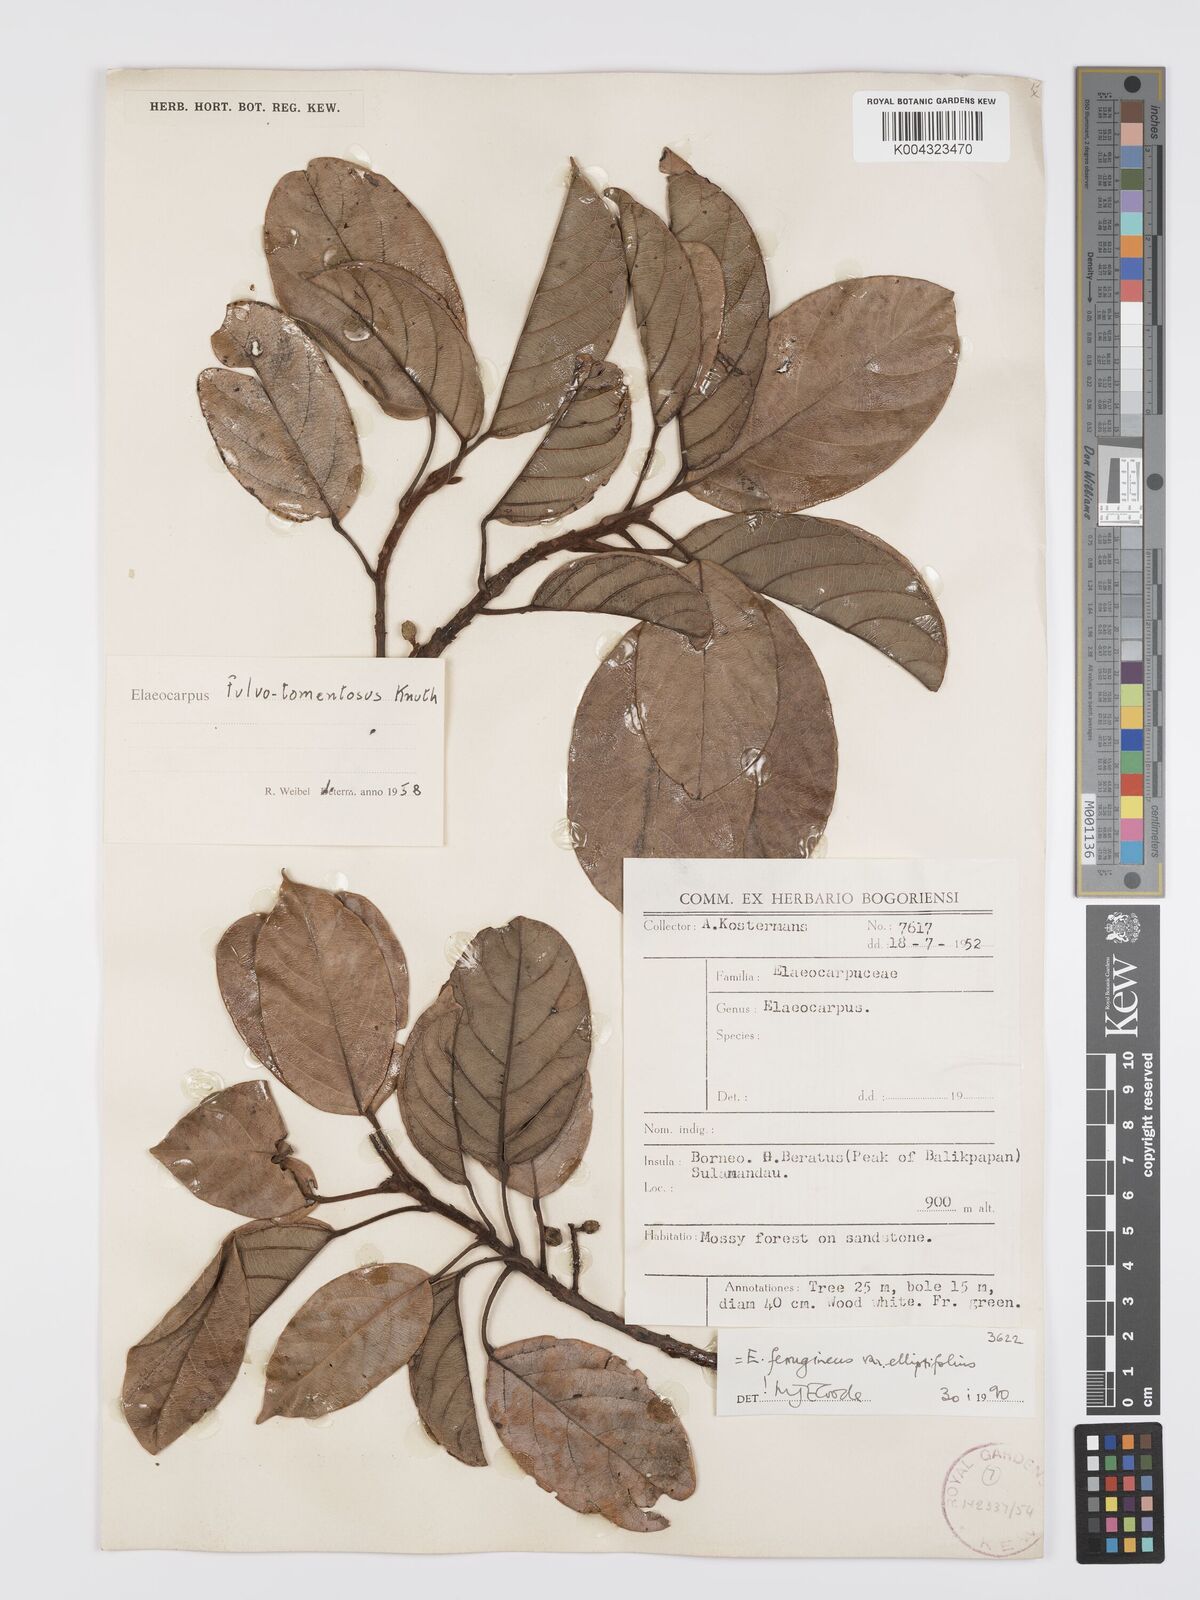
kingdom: Plantae
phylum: Tracheophyta
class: Magnoliopsida
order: Oxalidales
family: Elaeocarpaceae
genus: Elaeocarpus
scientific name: Elaeocarpus ferrugineus
